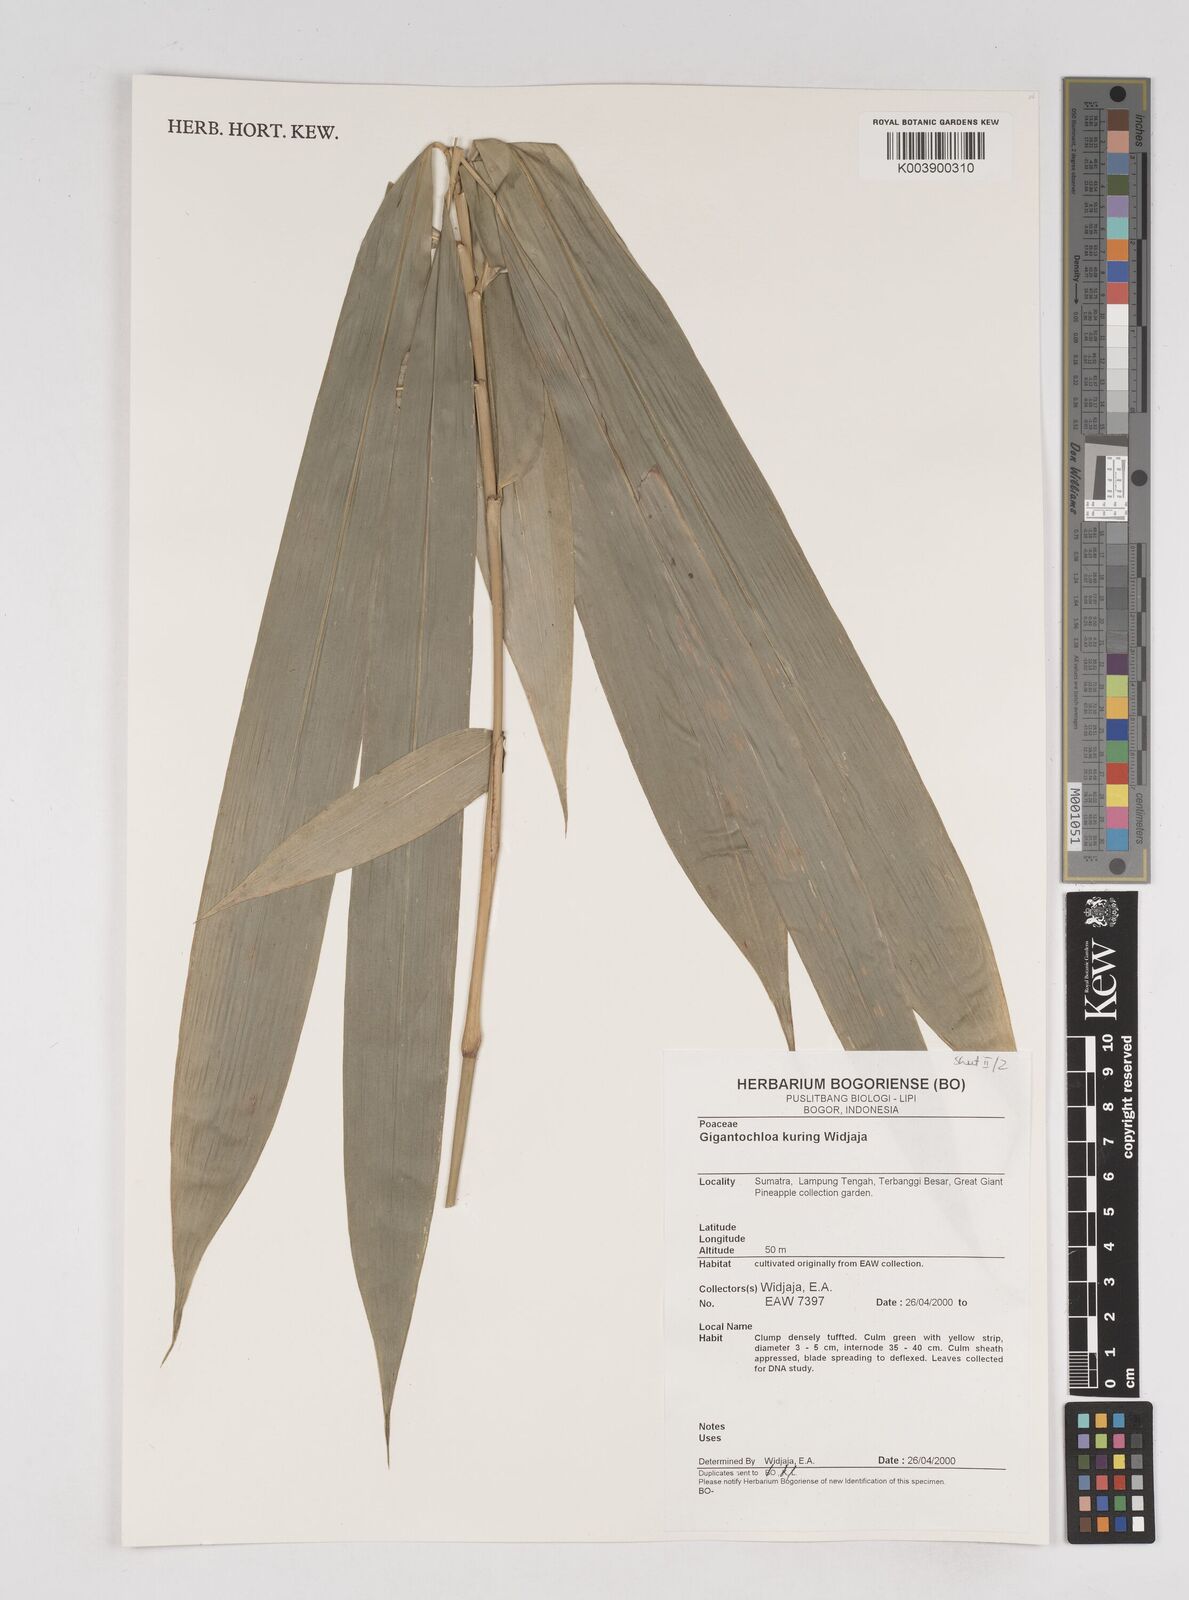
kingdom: Plantae
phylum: Tracheophyta
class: Liliopsida
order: Poales
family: Poaceae
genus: Gigantochloa
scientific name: Gigantochloa kuring
